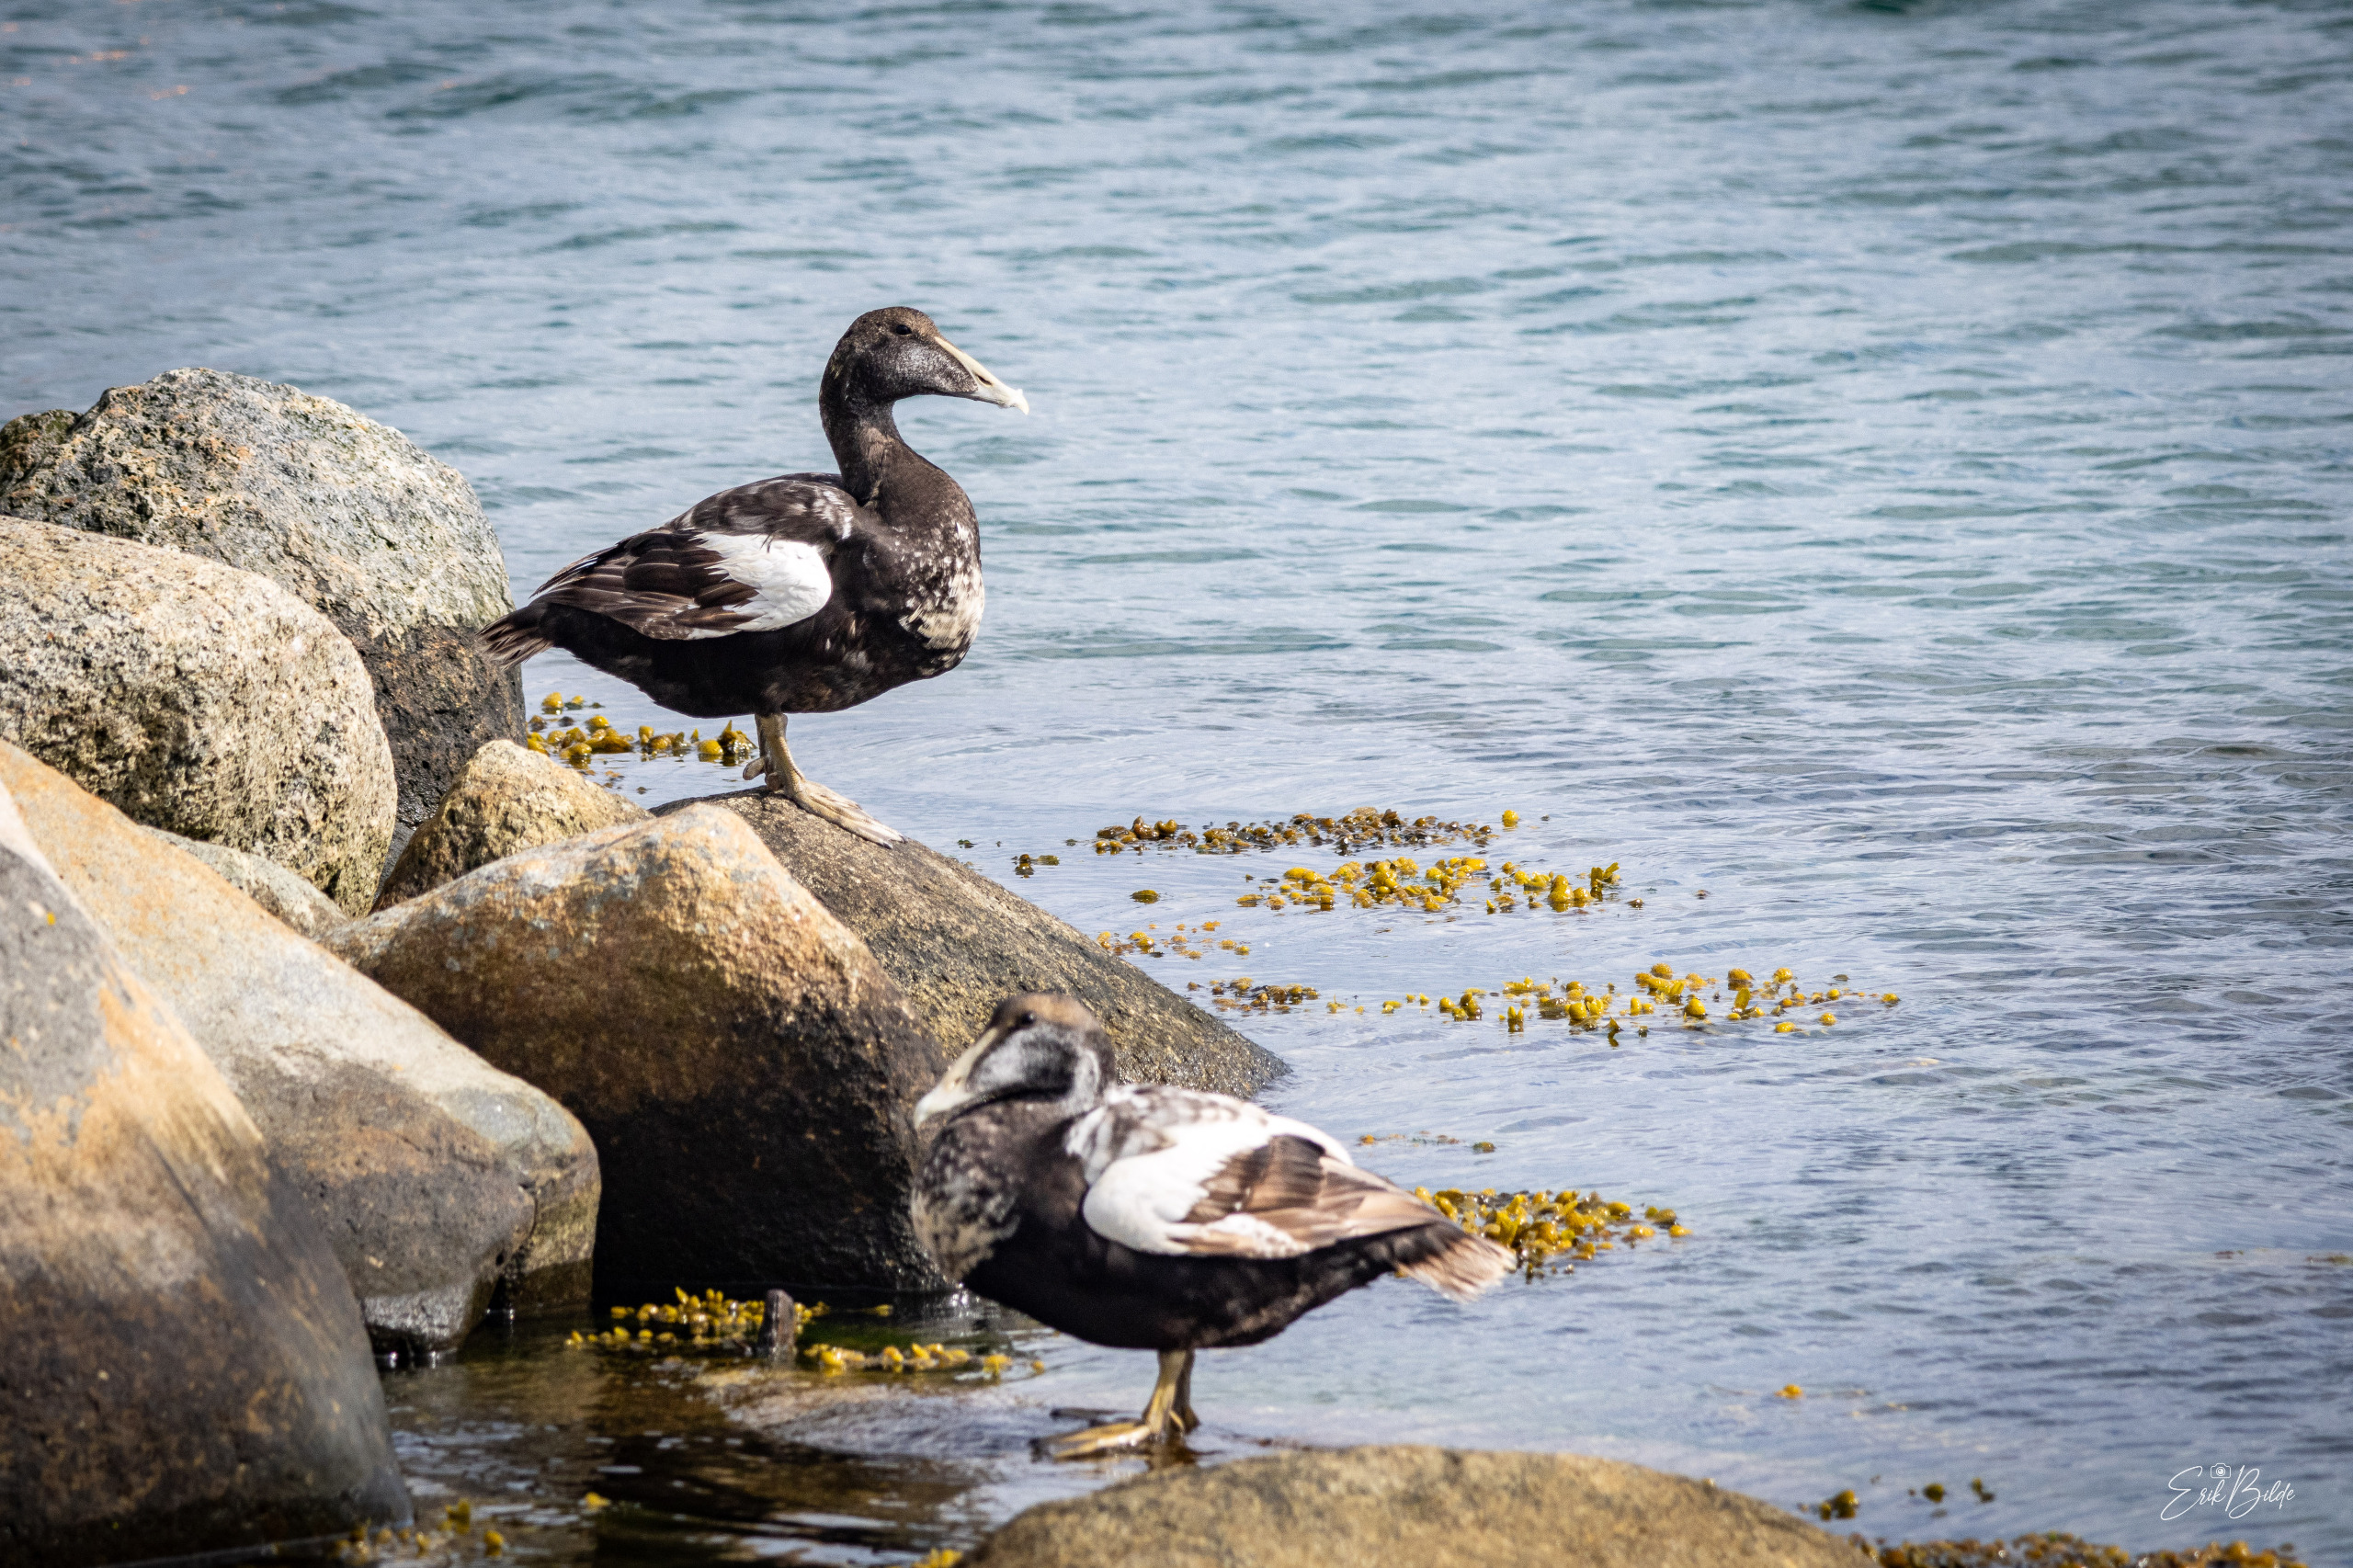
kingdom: Animalia
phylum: Chordata
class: Aves
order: Anseriformes
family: Anatidae
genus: Somateria
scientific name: Somateria mollissima
